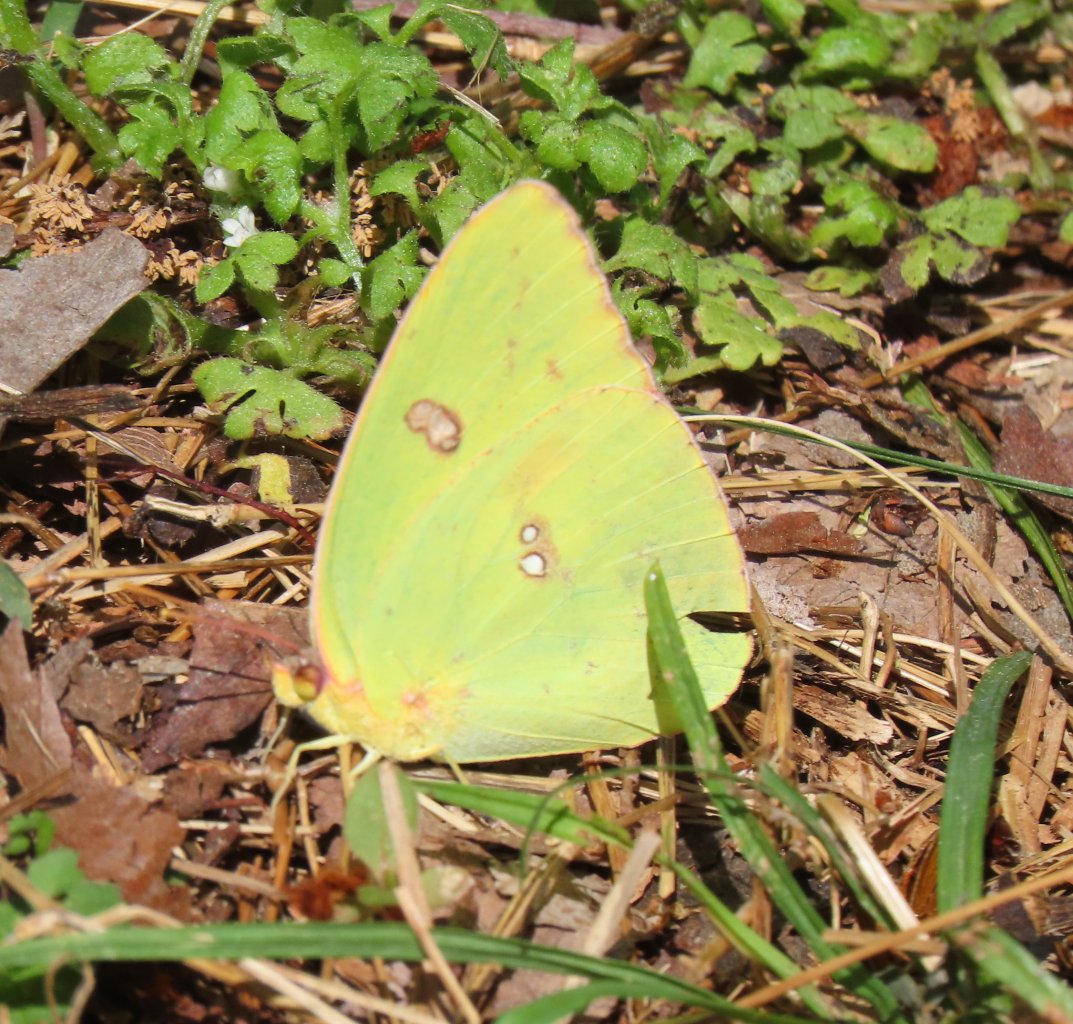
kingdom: Animalia
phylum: Arthropoda
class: Insecta
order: Lepidoptera
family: Pieridae
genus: Phoebis
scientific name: Phoebis sennae
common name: Cloudless Sulphur
